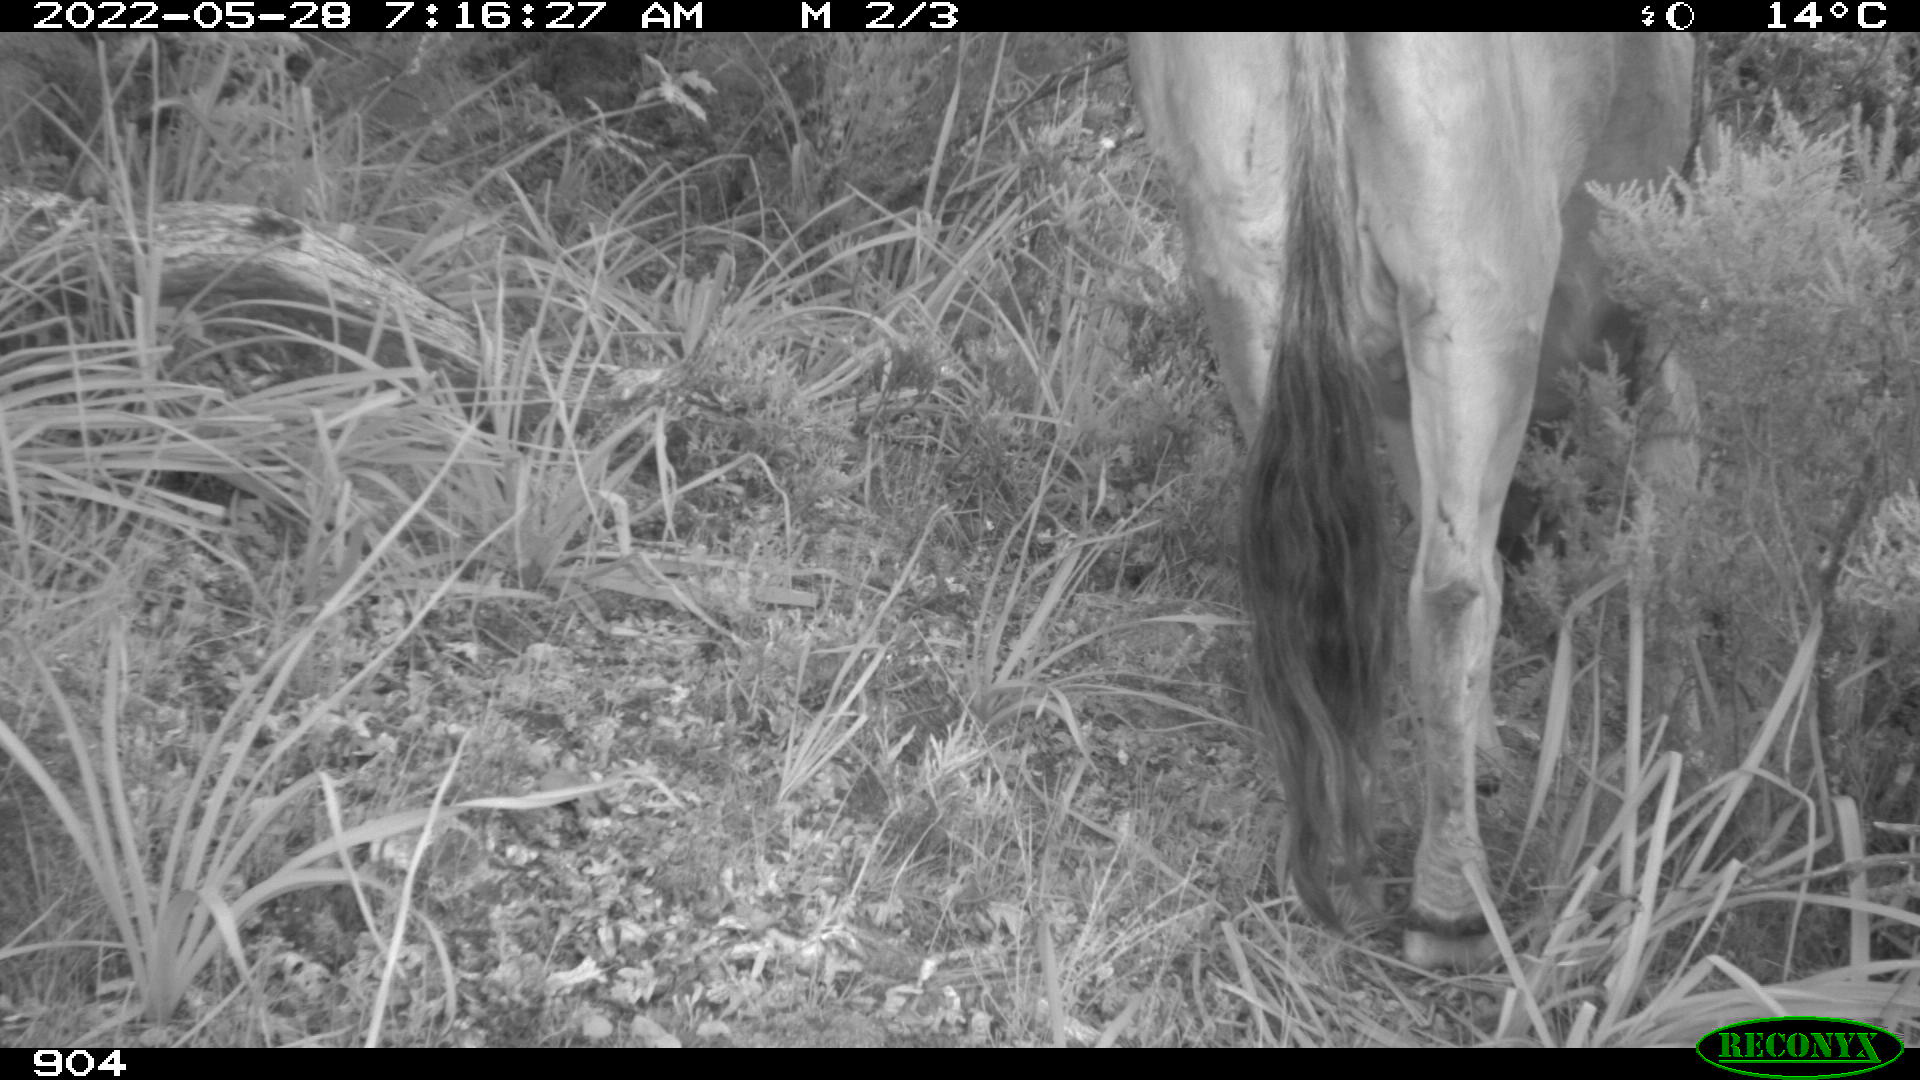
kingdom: Animalia
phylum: Chordata
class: Mammalia
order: Artiodactyla
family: Bovidae
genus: Bos
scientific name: Bos taurus
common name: Domesticated cattle
